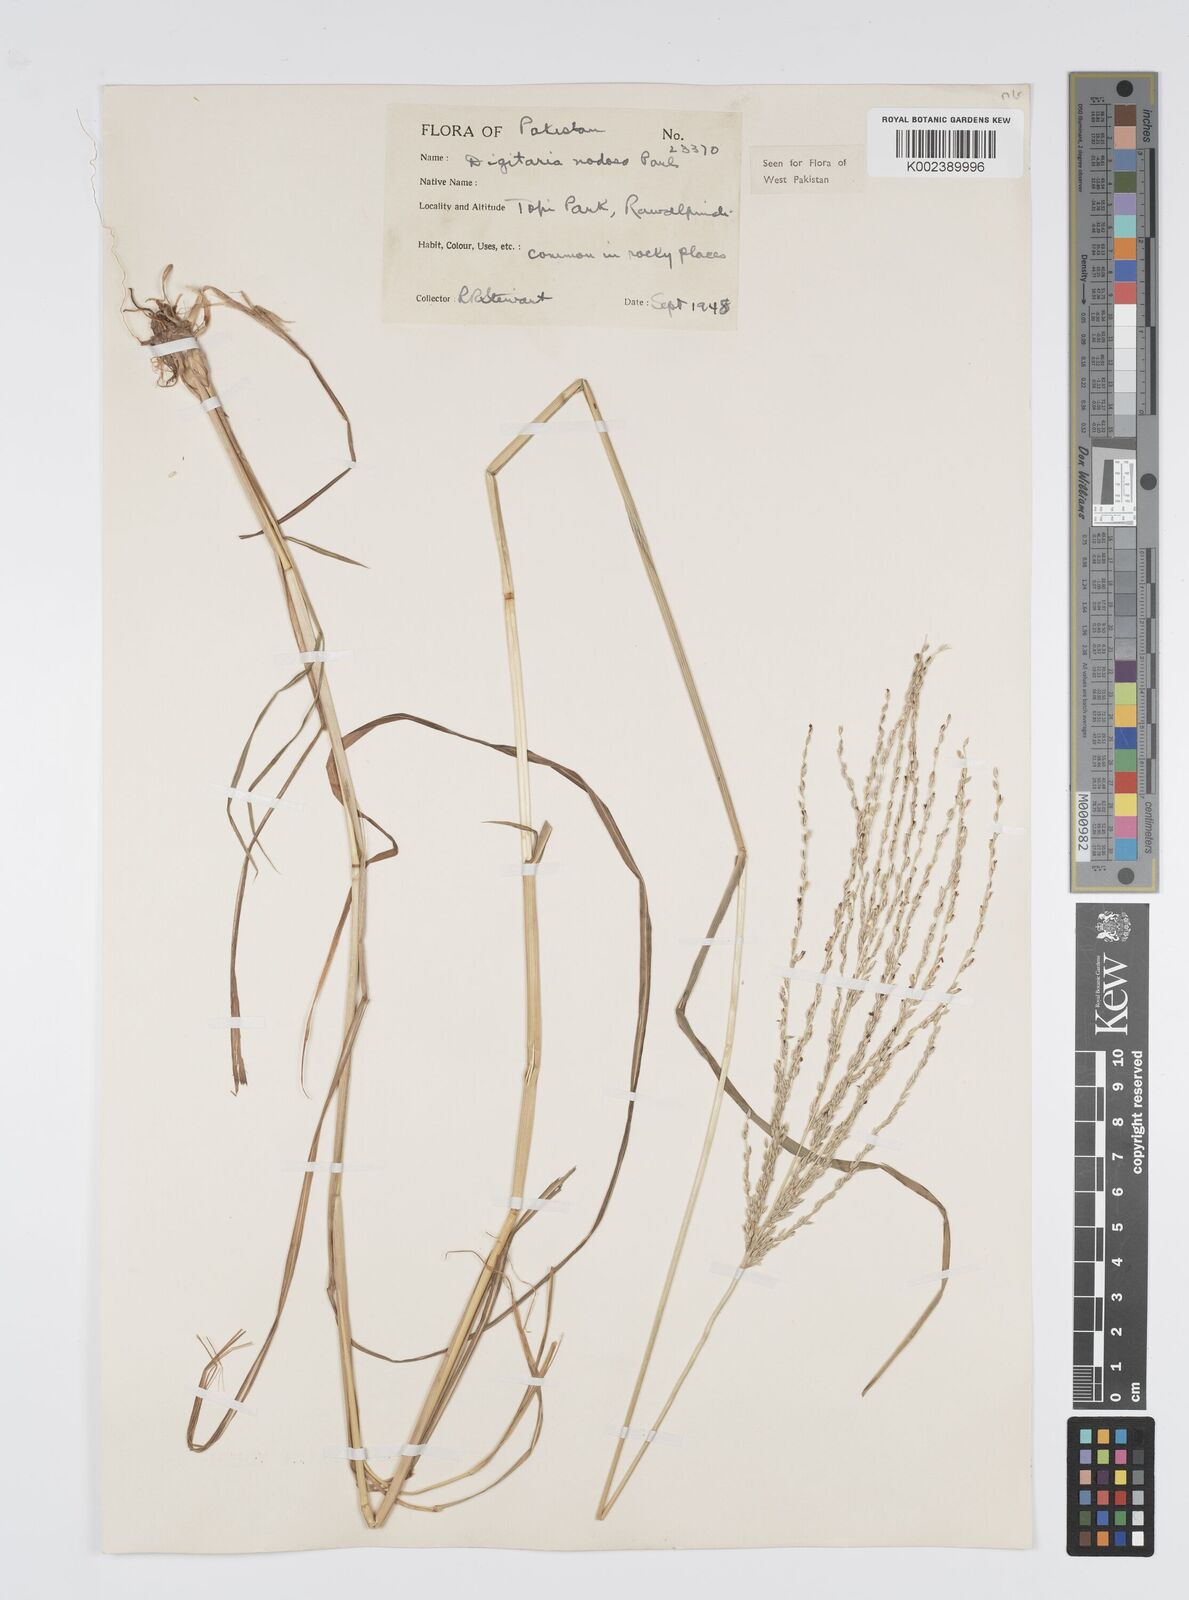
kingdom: Plantae
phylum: Tracheophyta
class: Liliopsida
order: Poales
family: Poaceae
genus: Digitaria
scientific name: Digitaria nodosa
